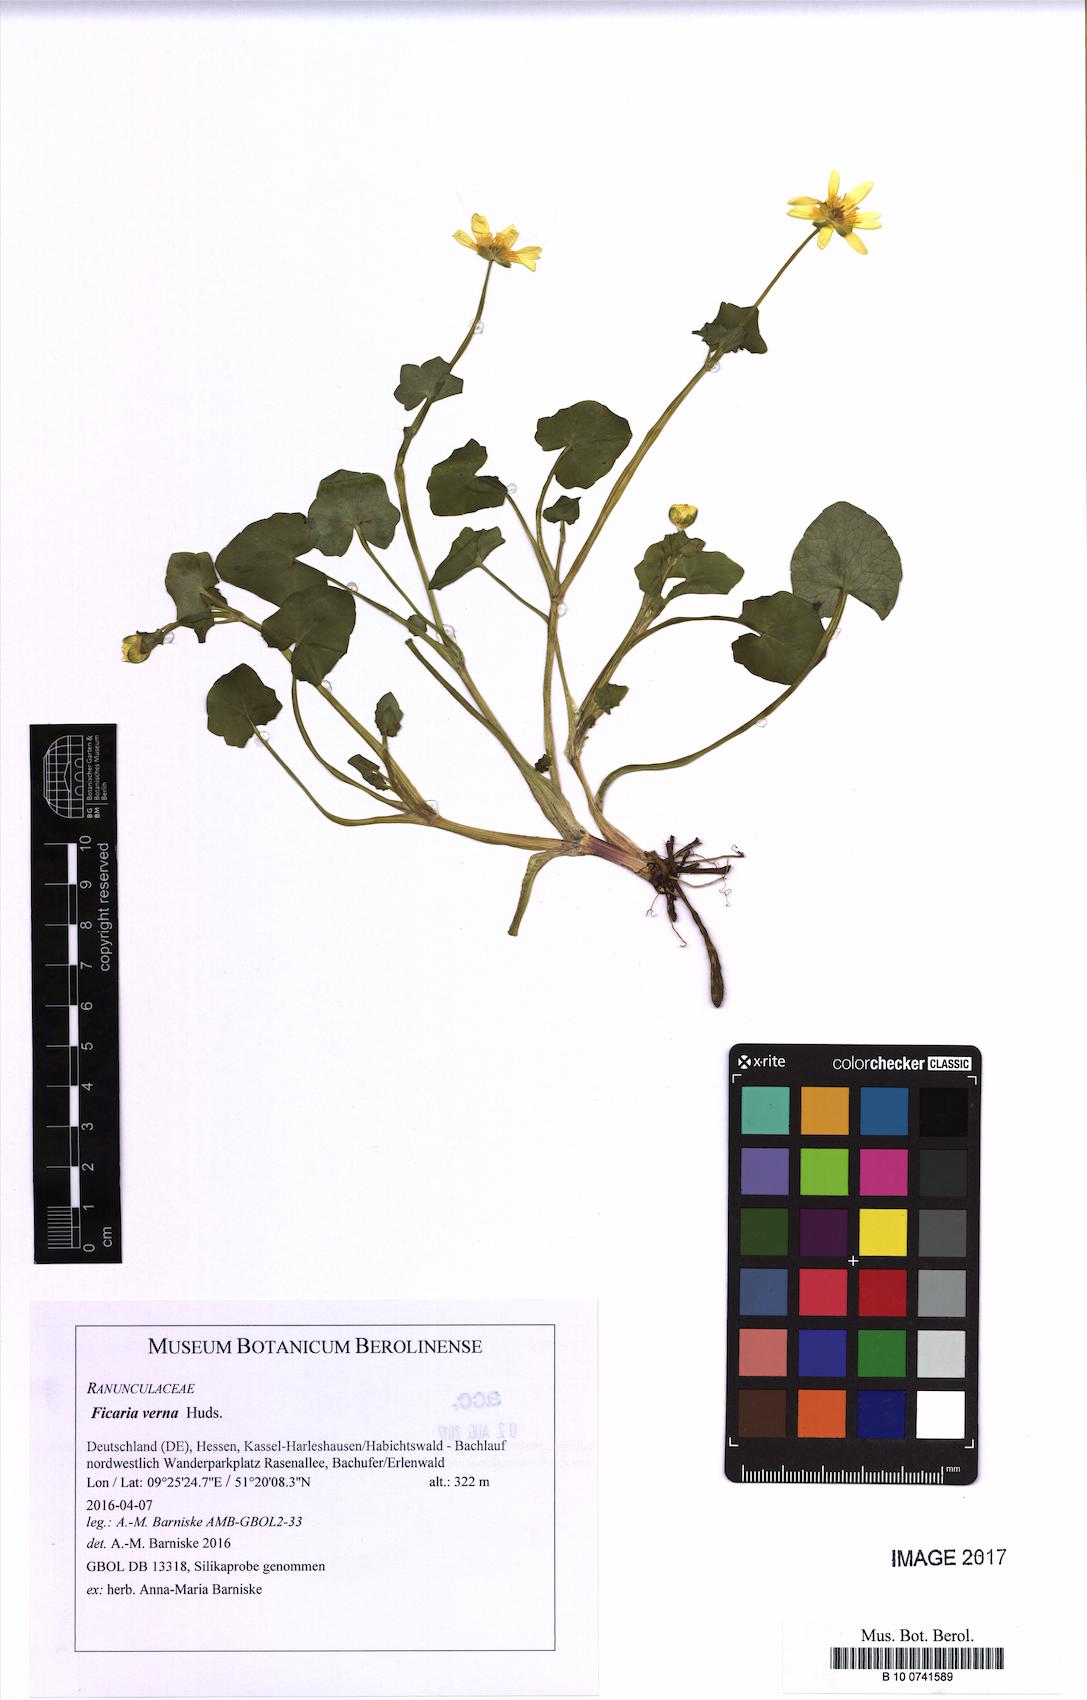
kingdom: Plantae
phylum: Tracheophyta
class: Magnoliopsida
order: Ranunculales
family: Ranunculaceae
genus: Ficaria
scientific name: Ficaria verna
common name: Lesser celandine
